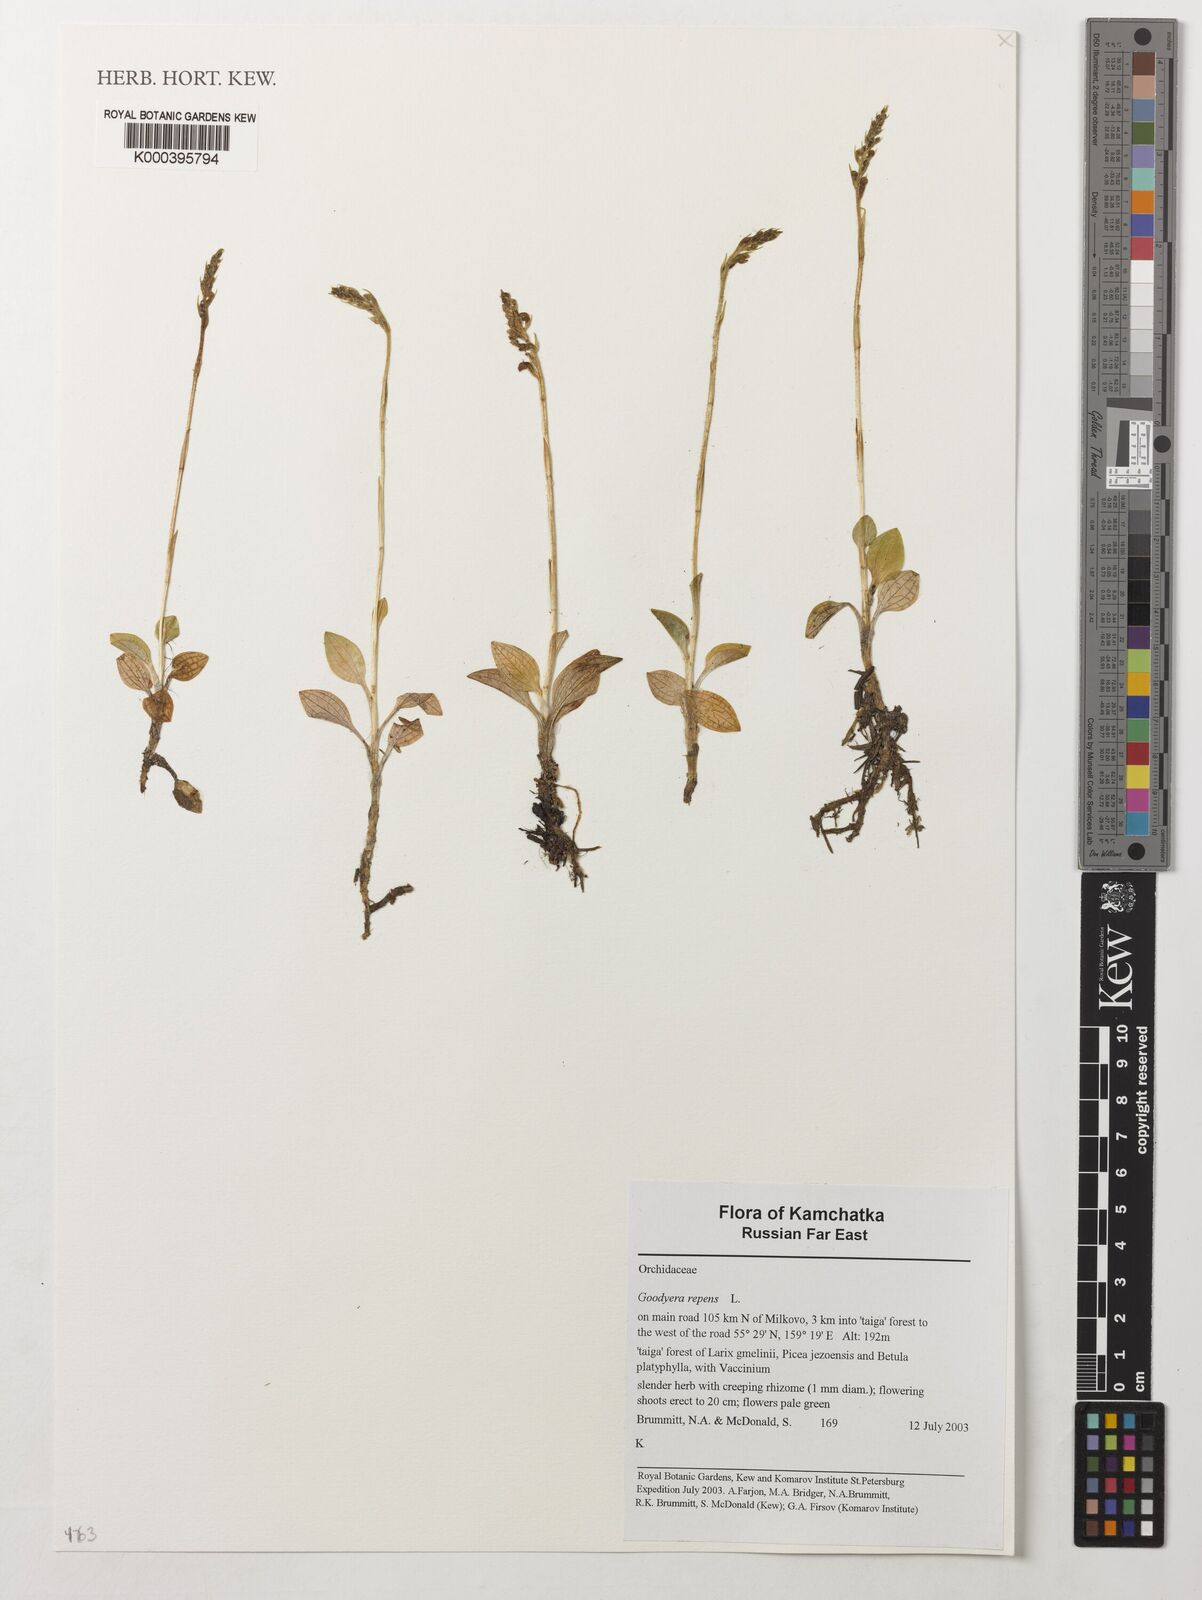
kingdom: Plantae
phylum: Tracheophyta
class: Liliopsida
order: Asparagales
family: Orchidaceae
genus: Goodyera
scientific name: Goodyera repens
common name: Creeping lady's-tresses
